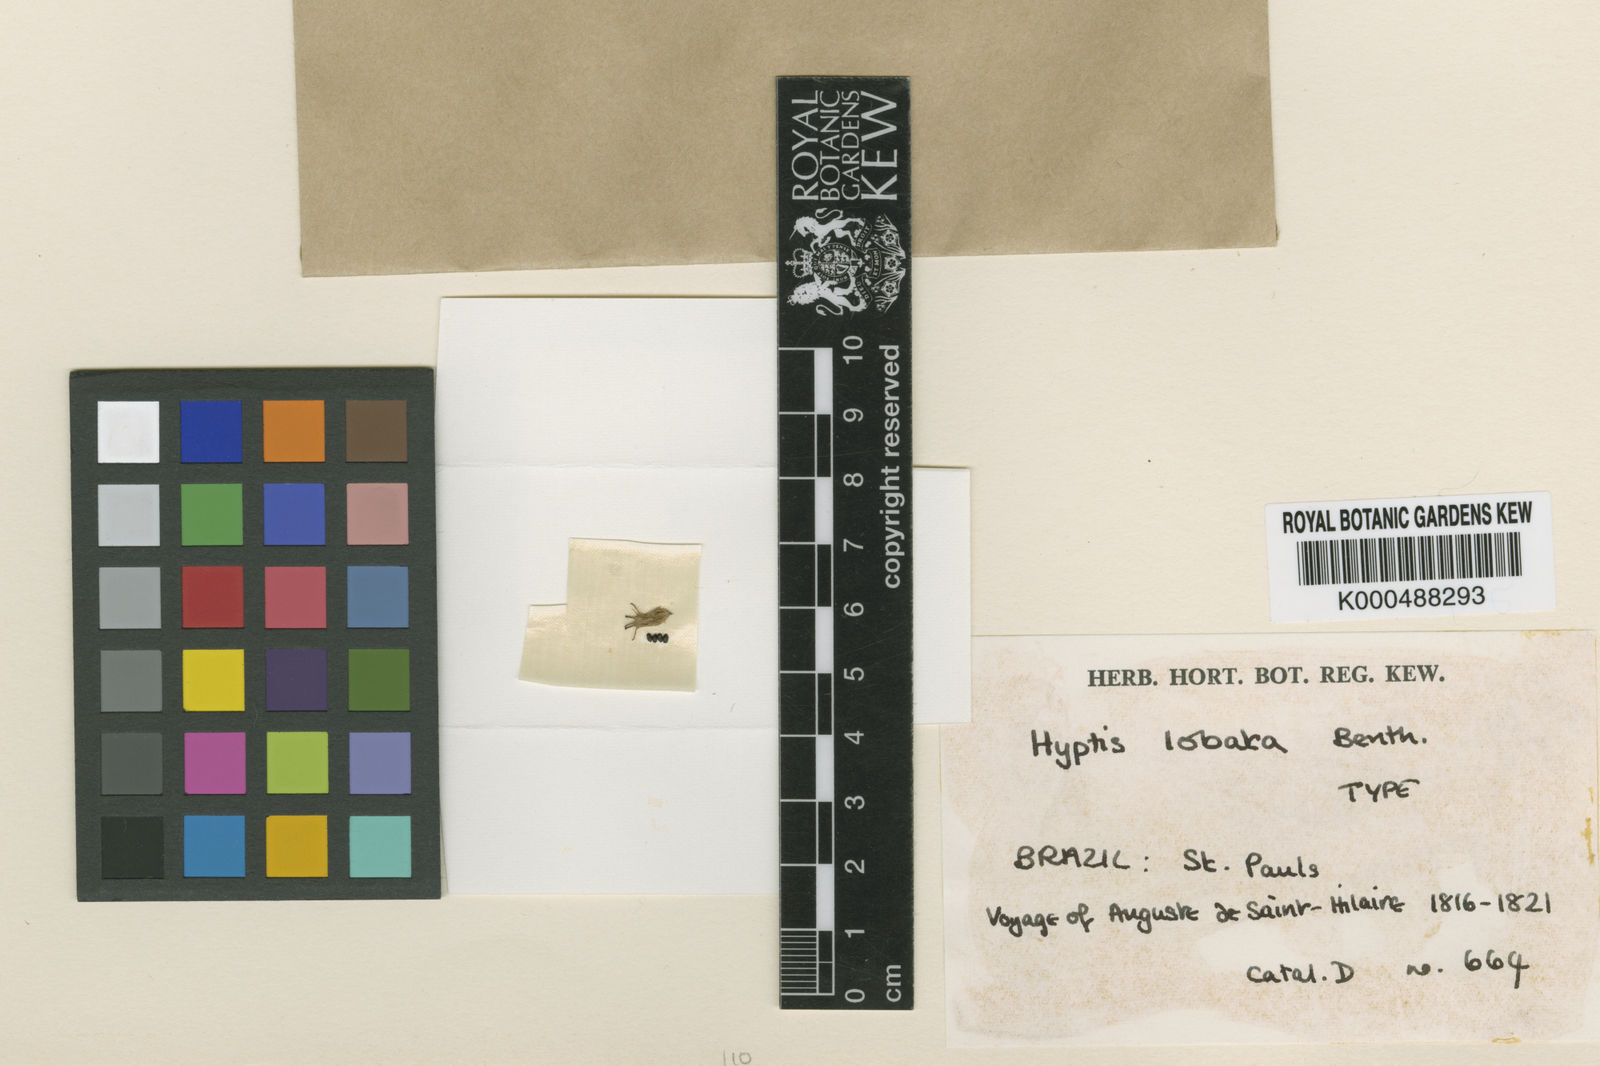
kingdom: Plantae
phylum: Tracheophyta
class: Magnoliopsida
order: Lamiales
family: Lamiaceae
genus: Hyptis
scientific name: Hyptis lobata
